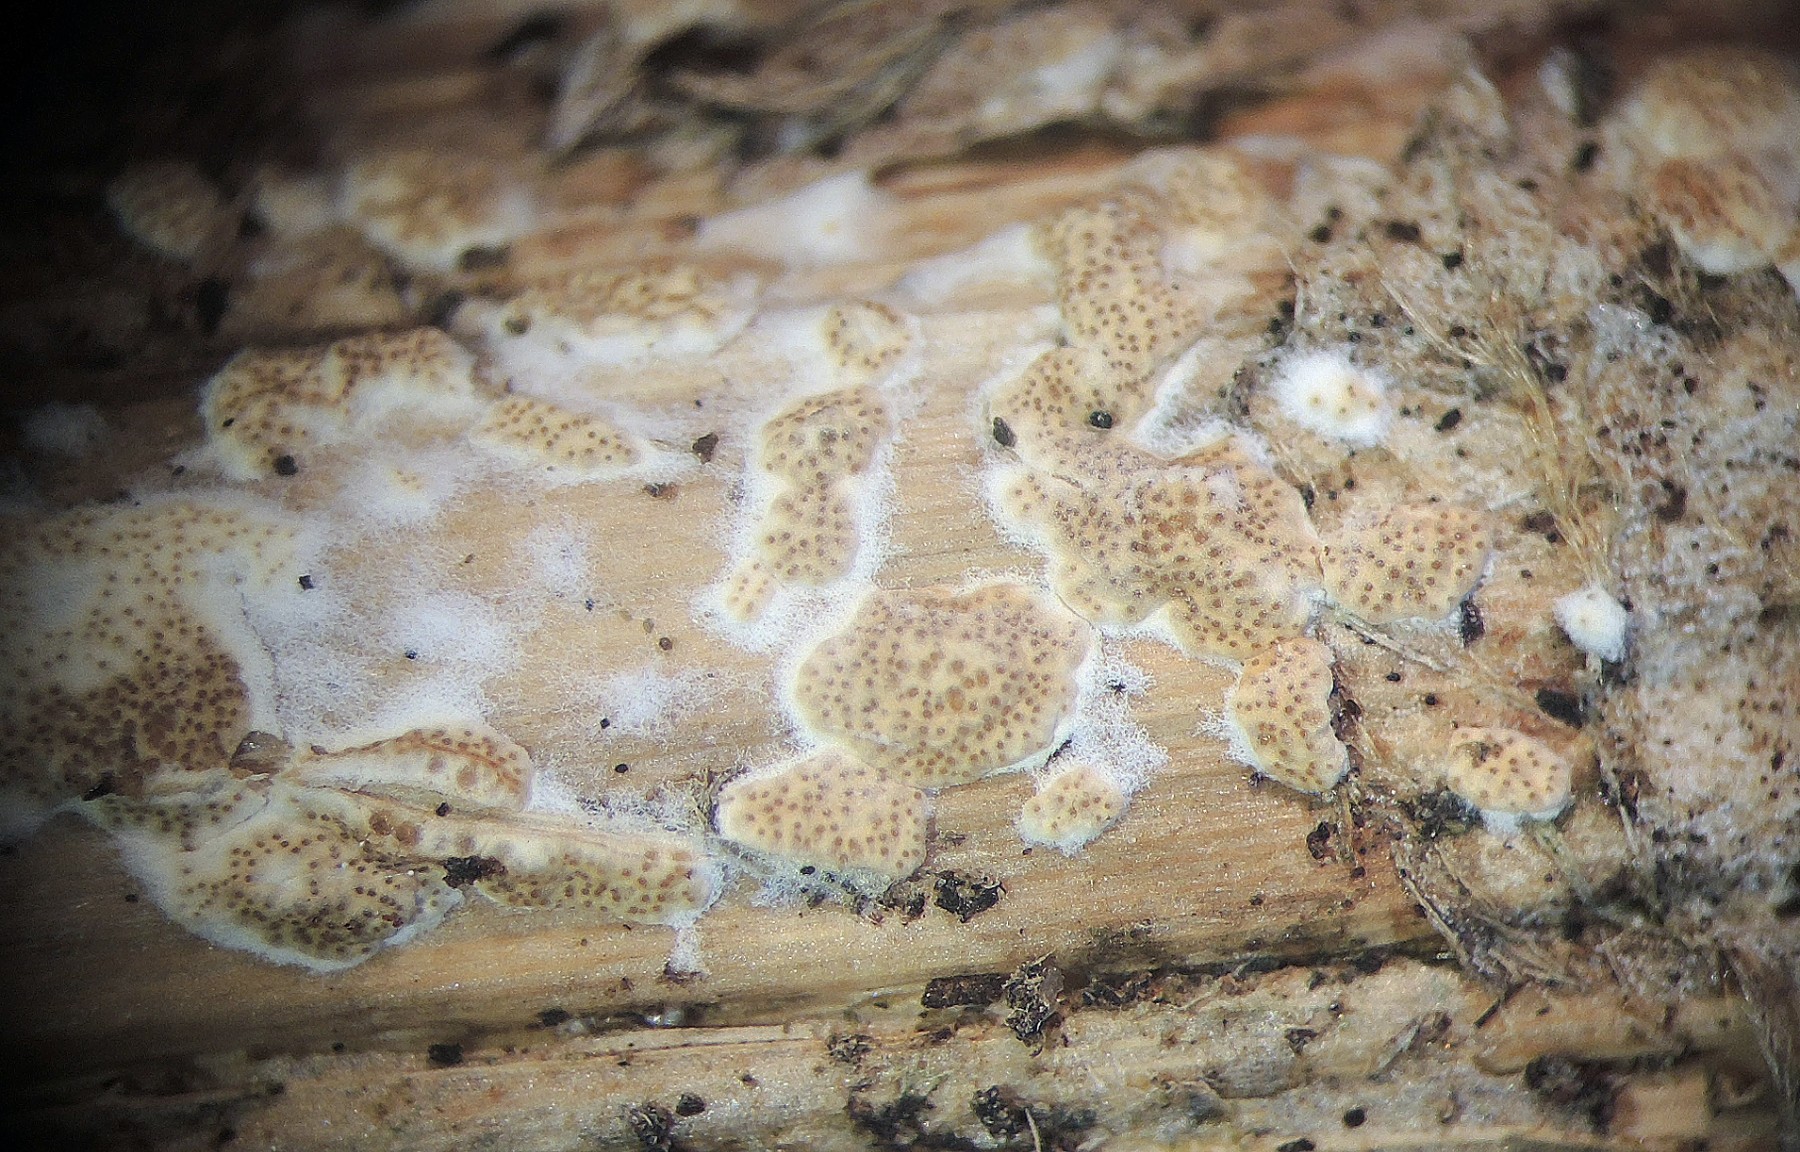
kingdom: Fungi
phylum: Ascomycota
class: Sordariomycetes
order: Hypocreales
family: Hypocreaceae
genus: Trichoderma
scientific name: Trichoderma
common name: kødkerne
